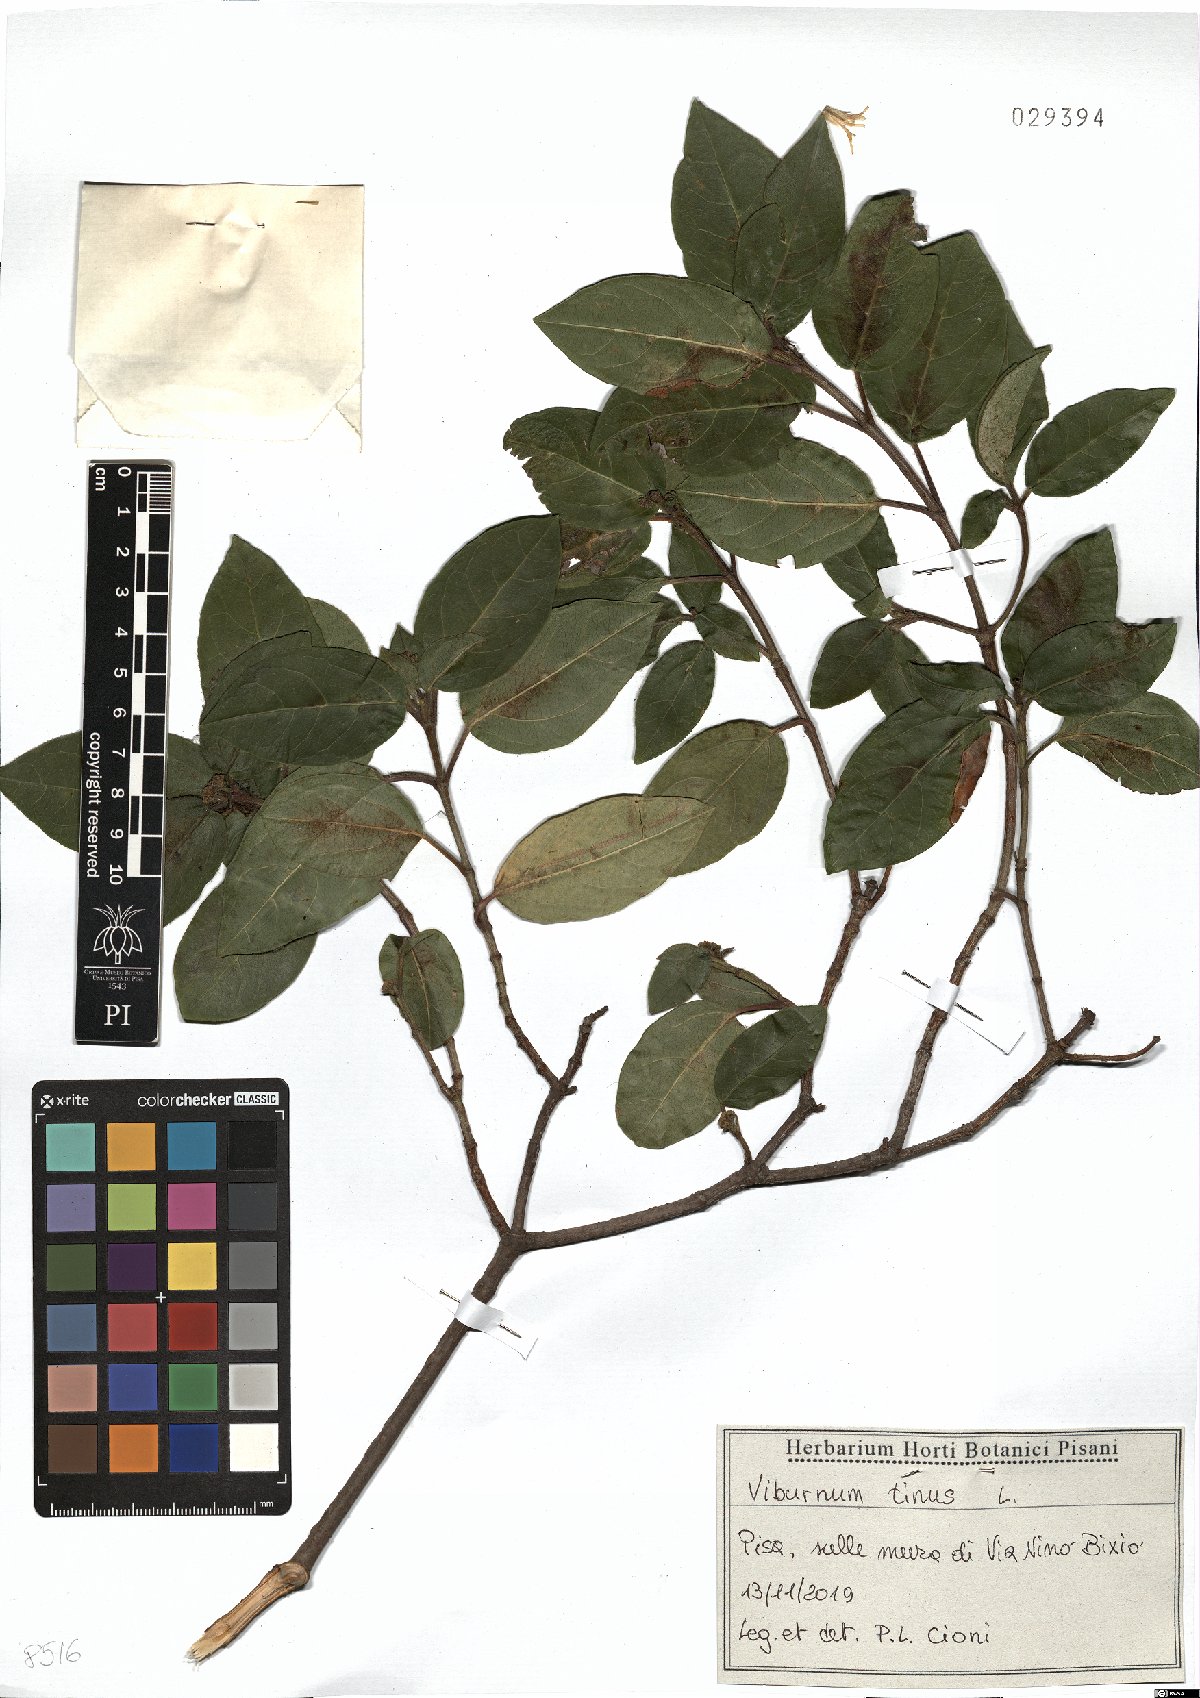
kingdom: Plantae
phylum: Tracheophyta
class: Magnoliopsida
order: Dipsacales
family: Viburnaceae
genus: Viburnum
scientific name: Viburnum tinus
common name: Laurustinus
